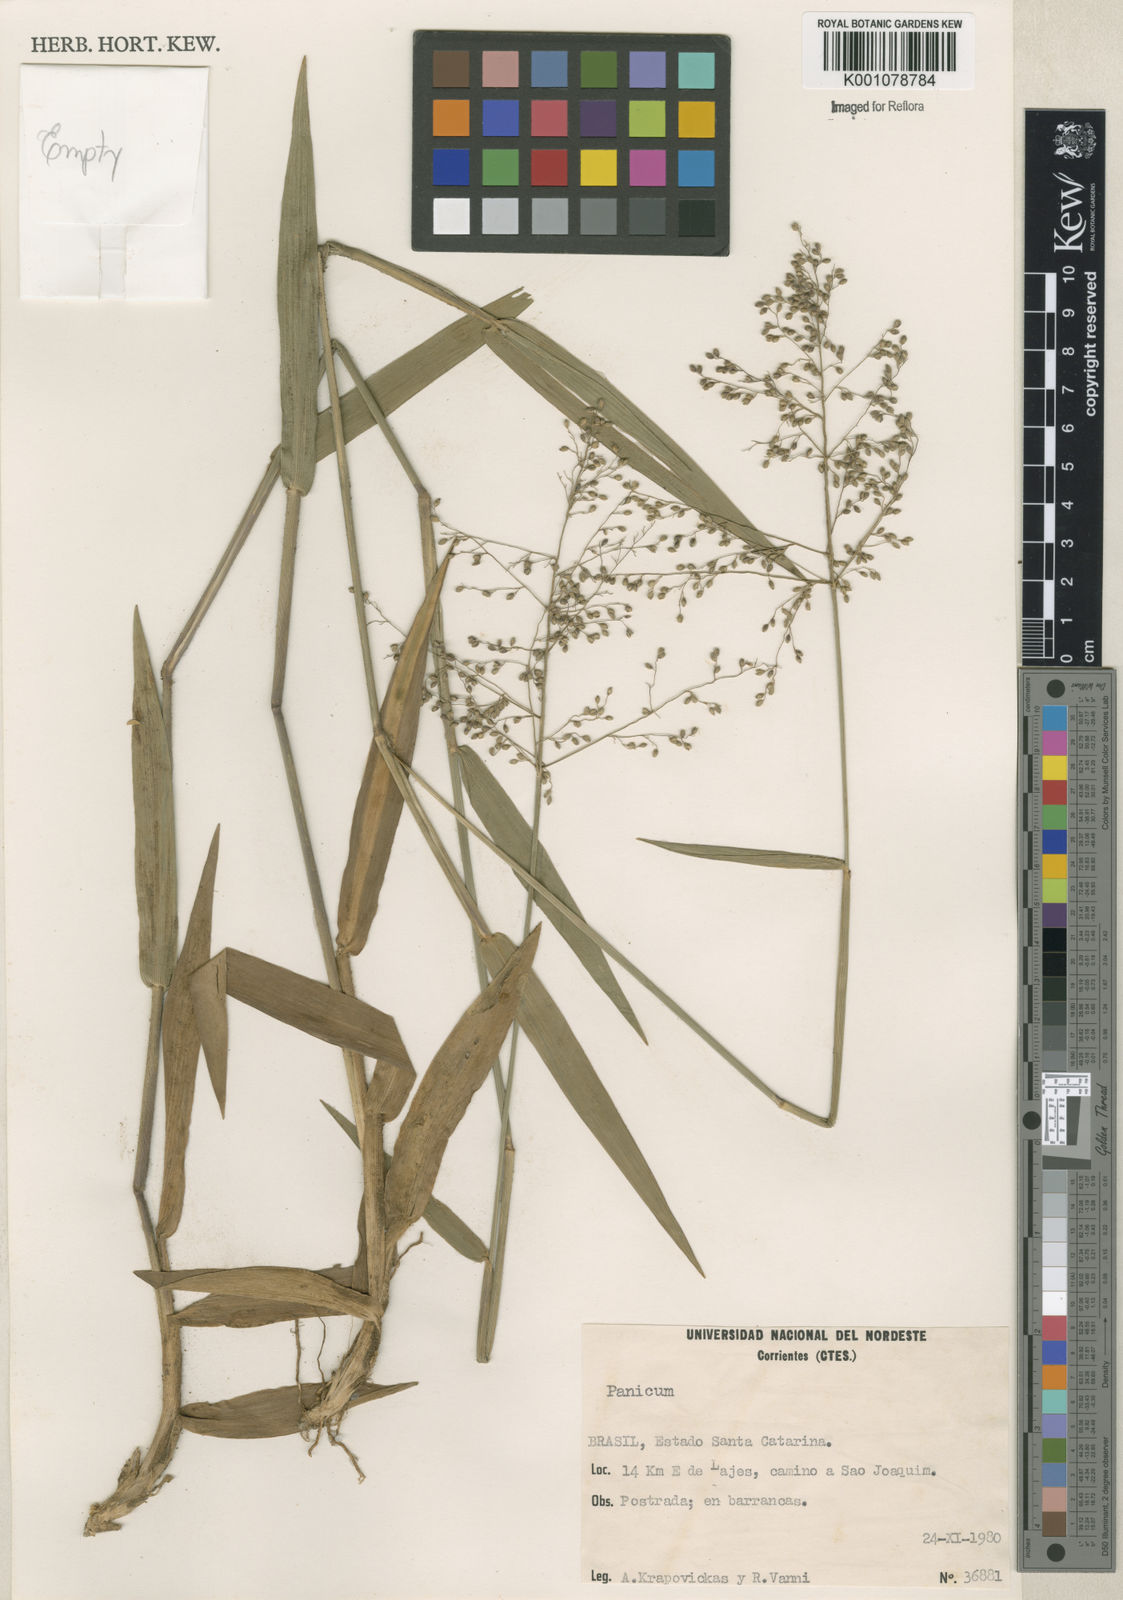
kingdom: Plantae
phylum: Tracheophyta
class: Liliopsida
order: Poales
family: Poaceae
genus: Panicum
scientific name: Panicum
